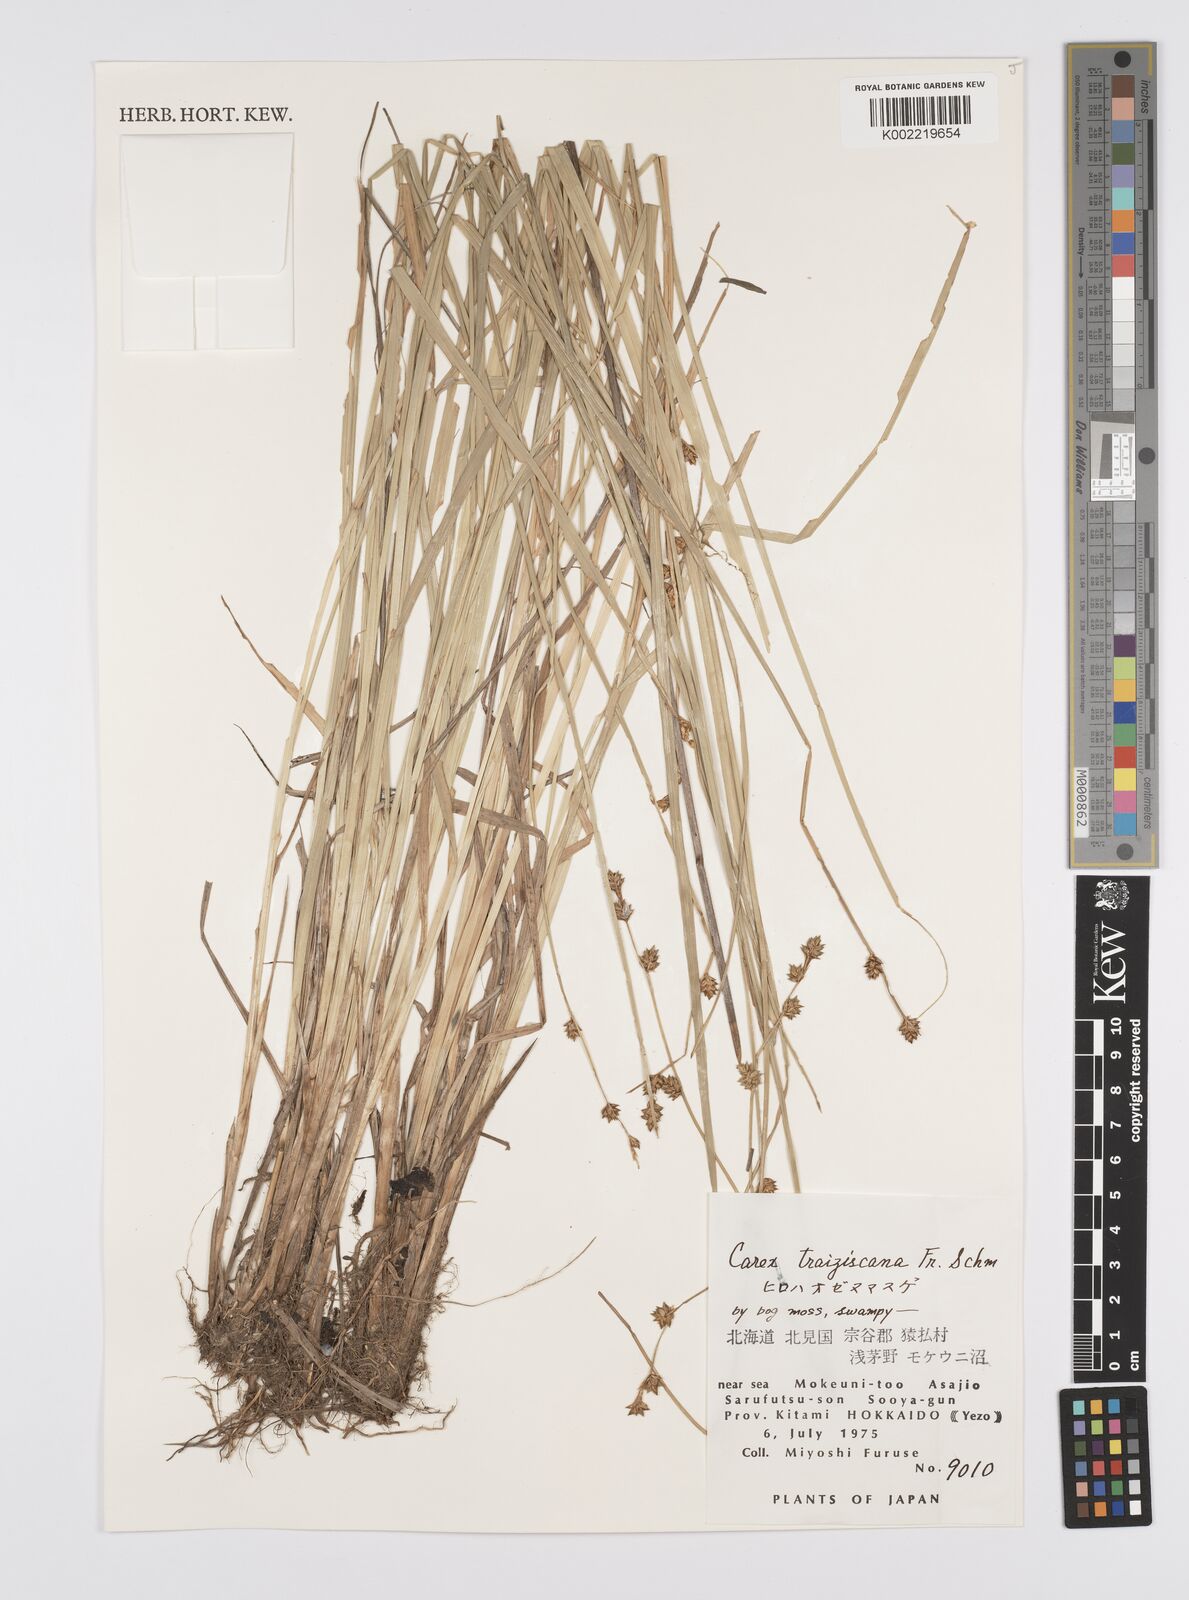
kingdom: Plantae
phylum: Tracheophyta
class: Liliopsida
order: Poales
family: Cyperaceae
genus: Carex
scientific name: Carex traiziscana
